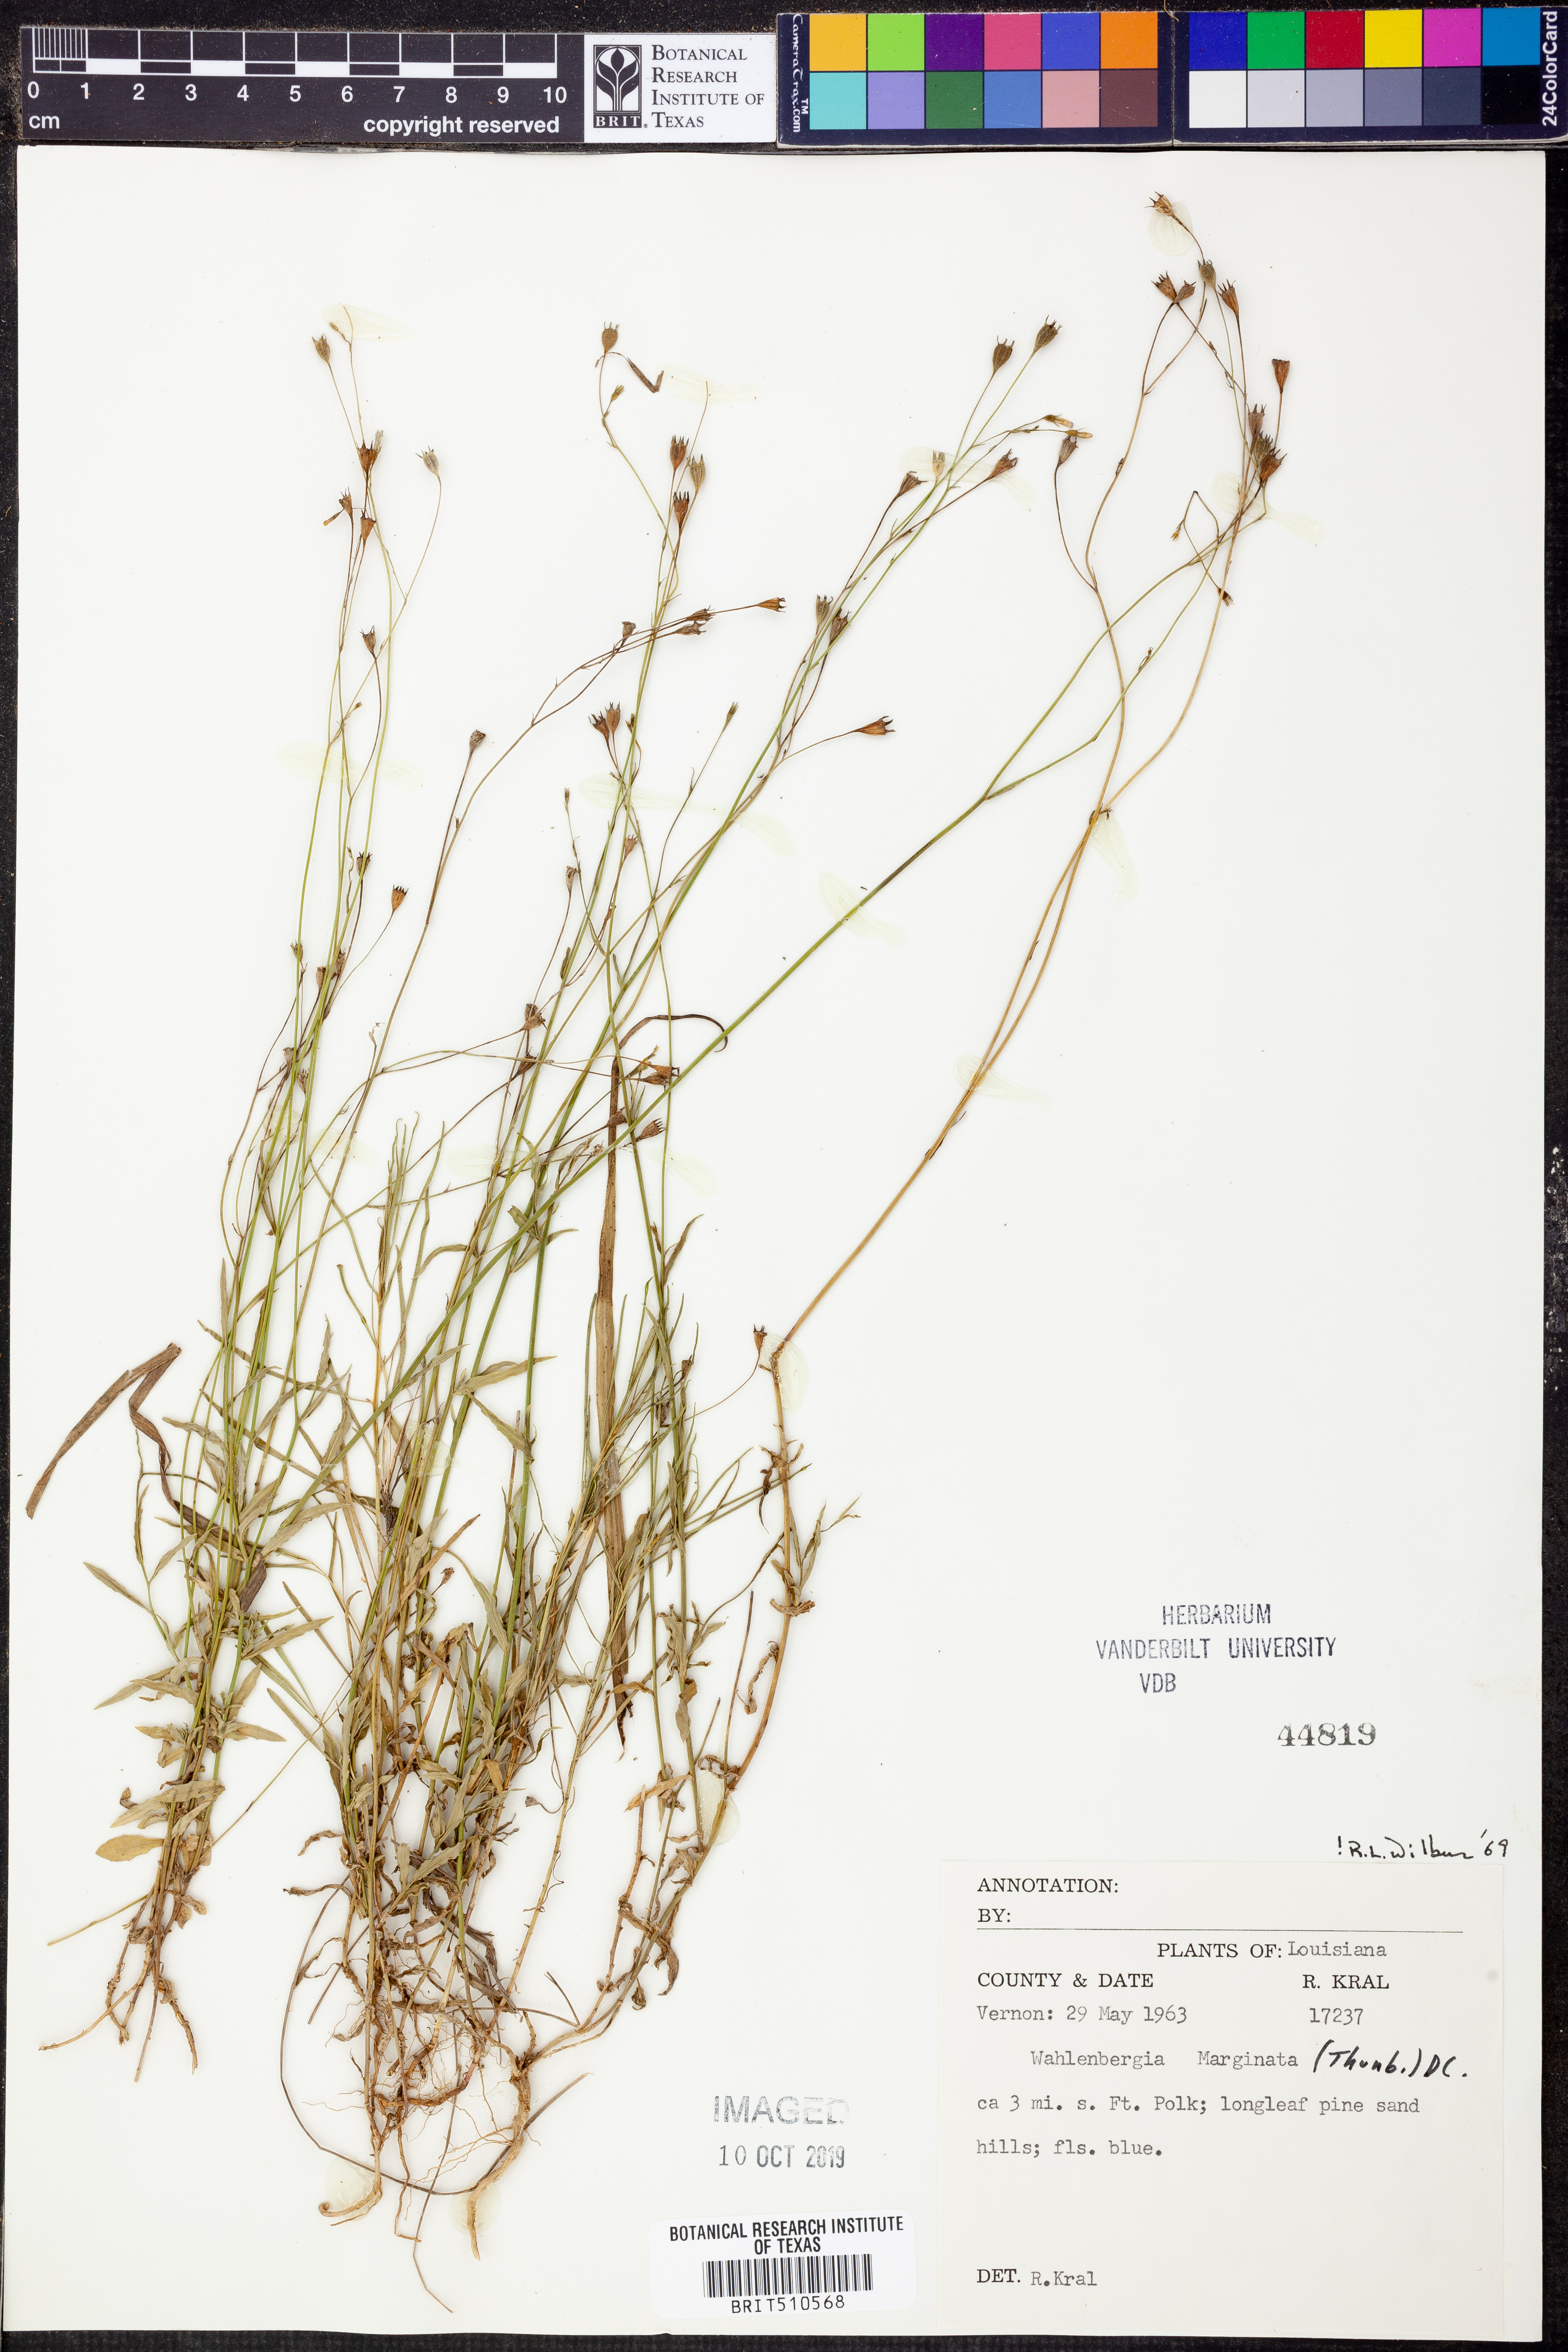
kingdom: Plantae
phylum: Tracheophyta
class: Magnoliopsida
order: Asterales
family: Campanulaceae
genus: Wahlenbergia
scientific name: Wahlenbergia marginata
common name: Southern rockbell
